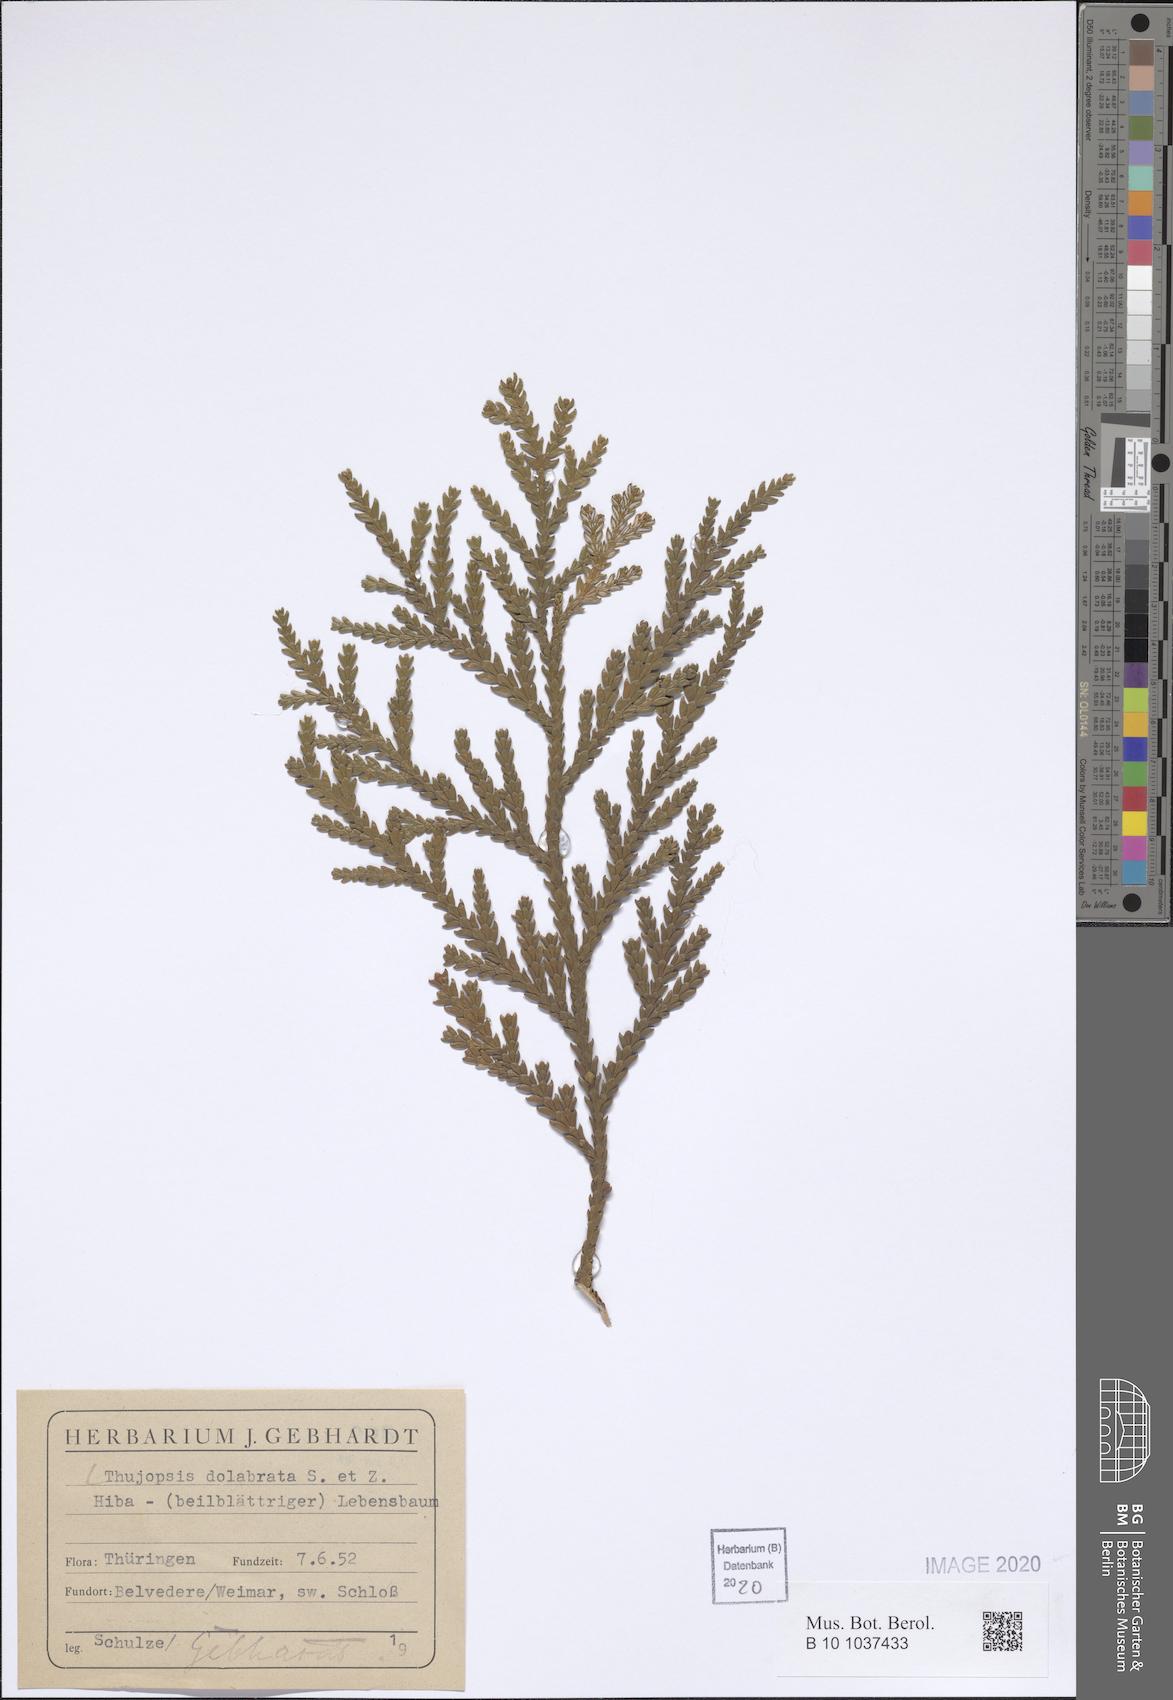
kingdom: Plantae
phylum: Tracheophyta
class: Pinopsida
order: Pinales
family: Cupressaceae
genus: Thujopsis
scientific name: Thujopsis dolabrata
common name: Hiba
